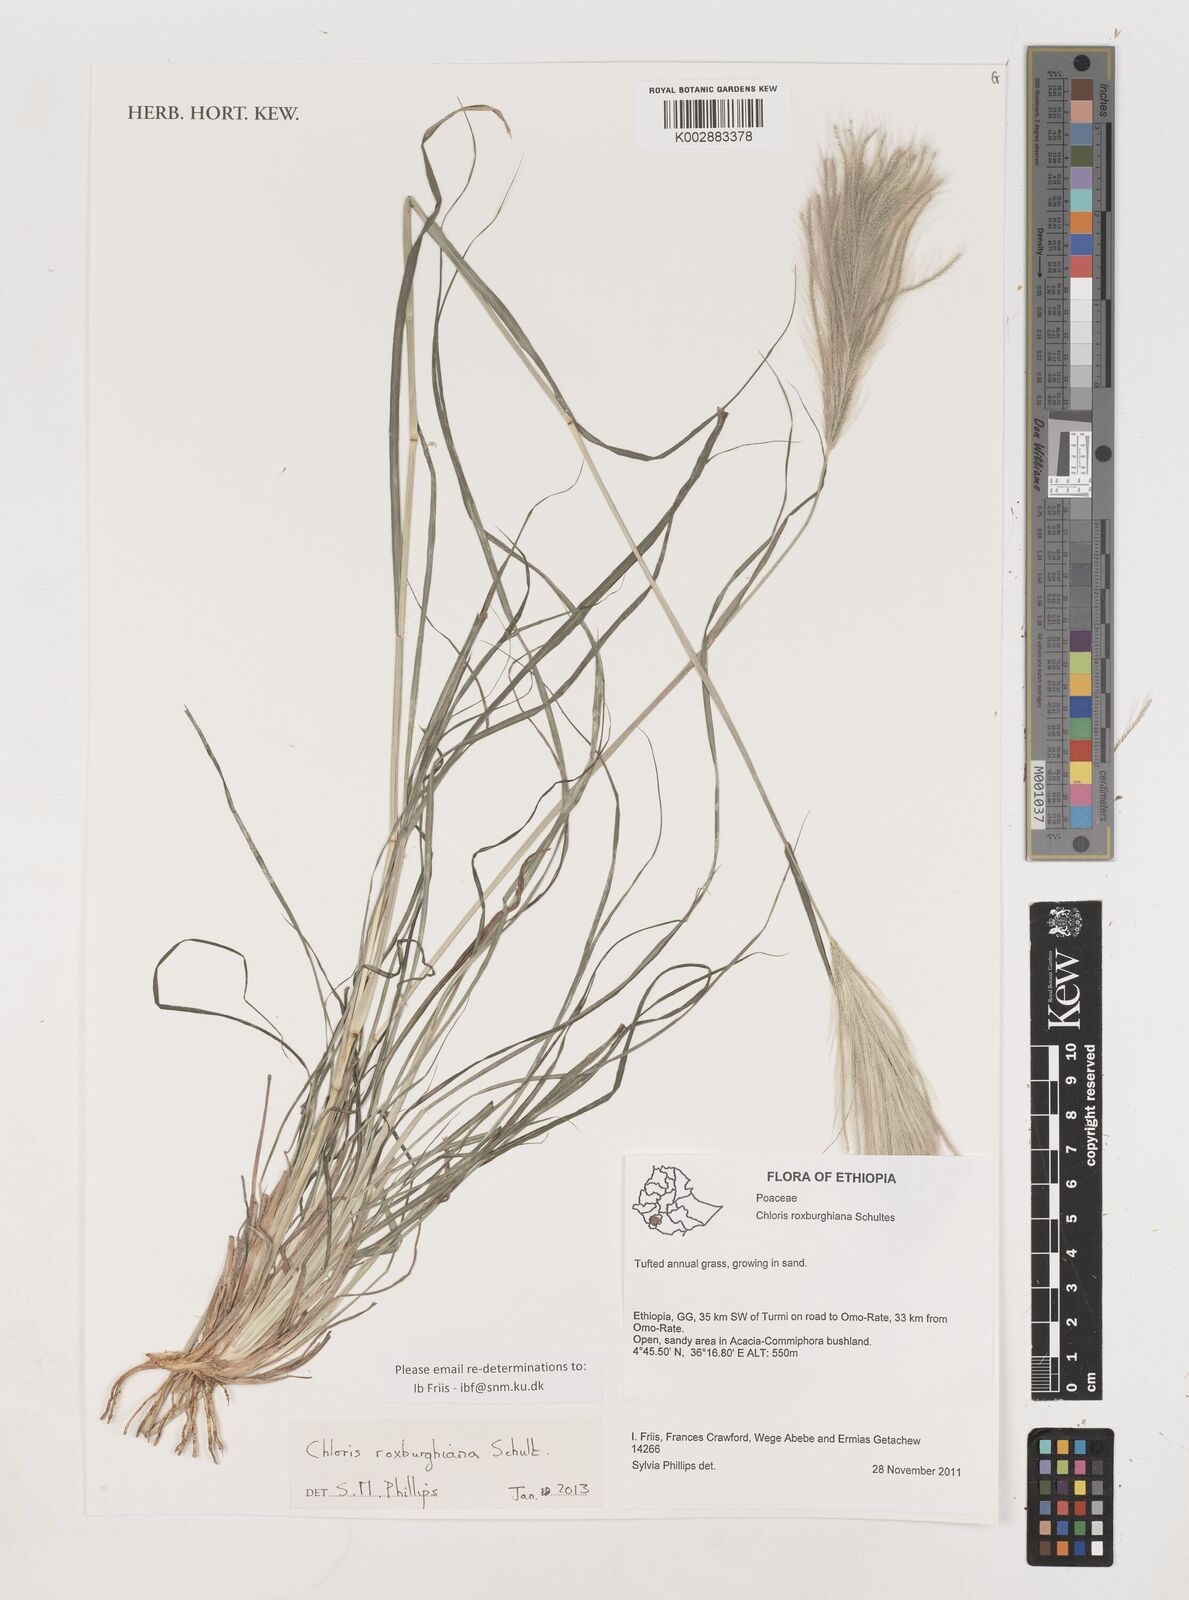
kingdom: Plantae
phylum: Tracheophyta
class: Liliopsida
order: Poales
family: Poaceae
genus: Tetrapogon
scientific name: Tetrapogon roxburghiana
